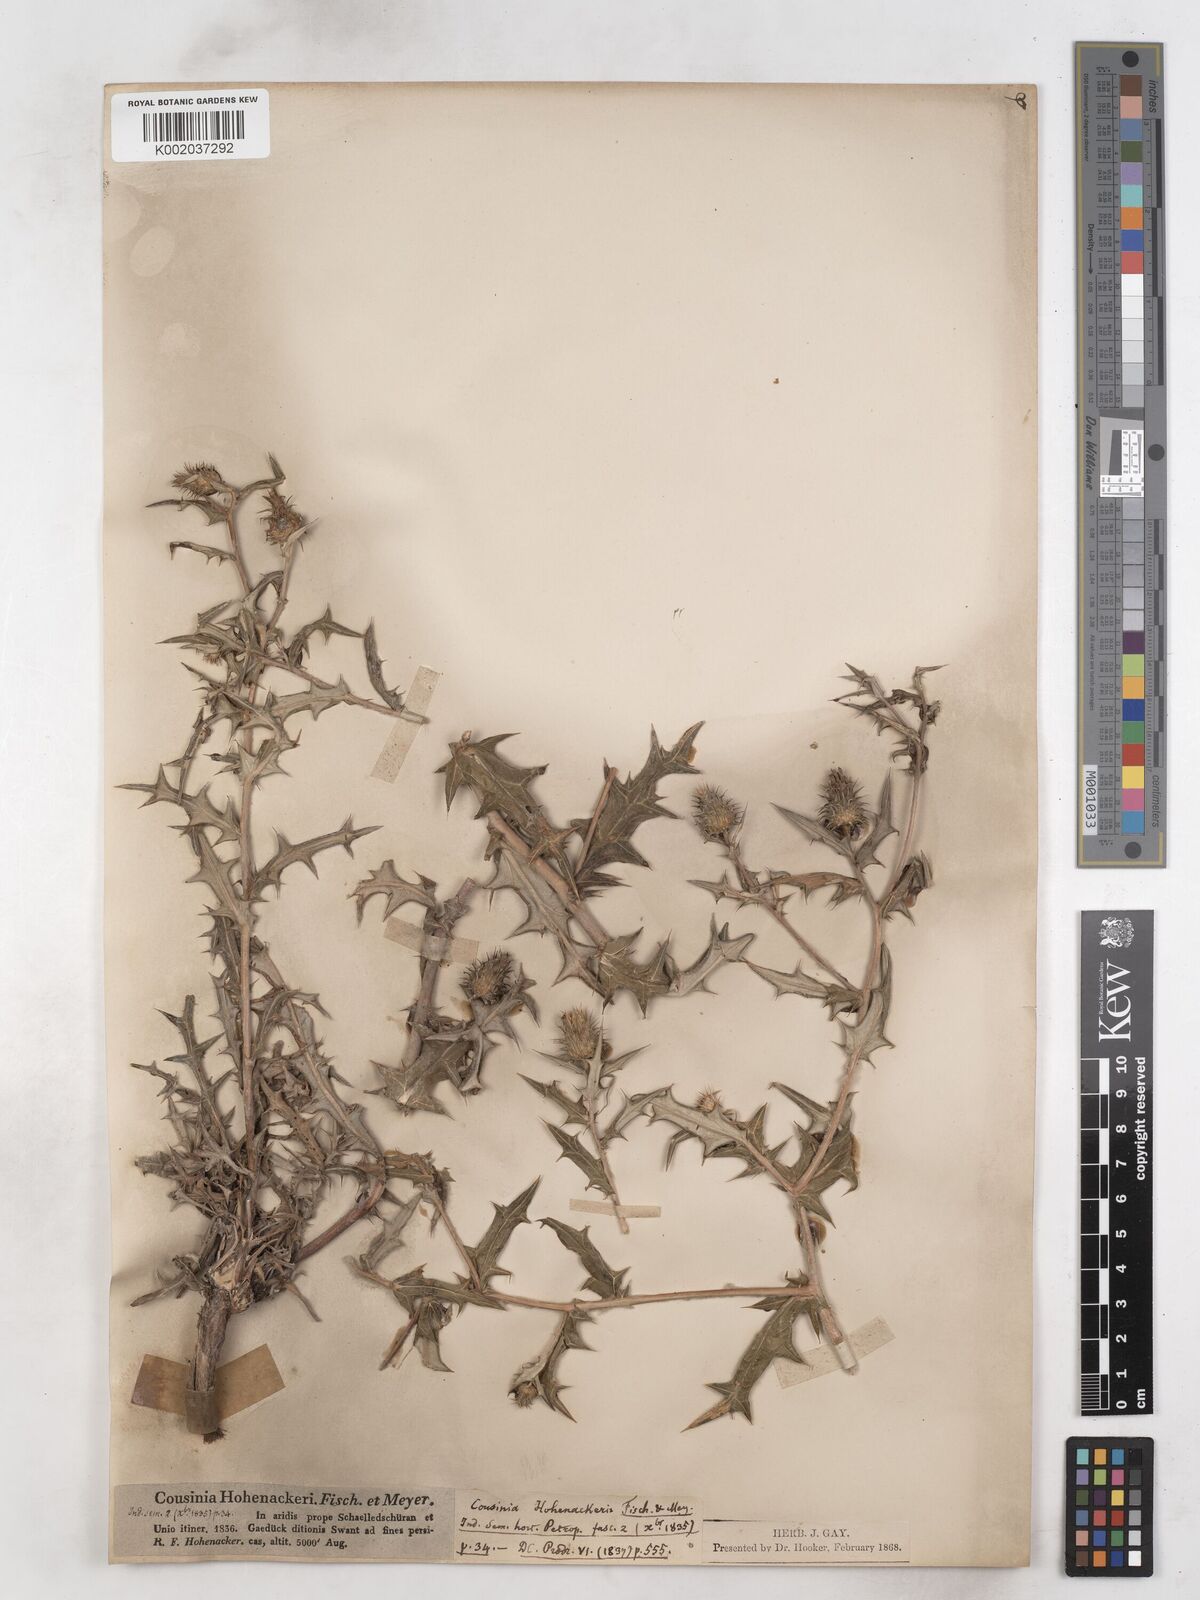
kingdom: Plantae
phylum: Tracheophyta
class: Magnoliopsida
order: Asterales
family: Asteraceae
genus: Cousinia
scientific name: Cousinia hohenackeri
